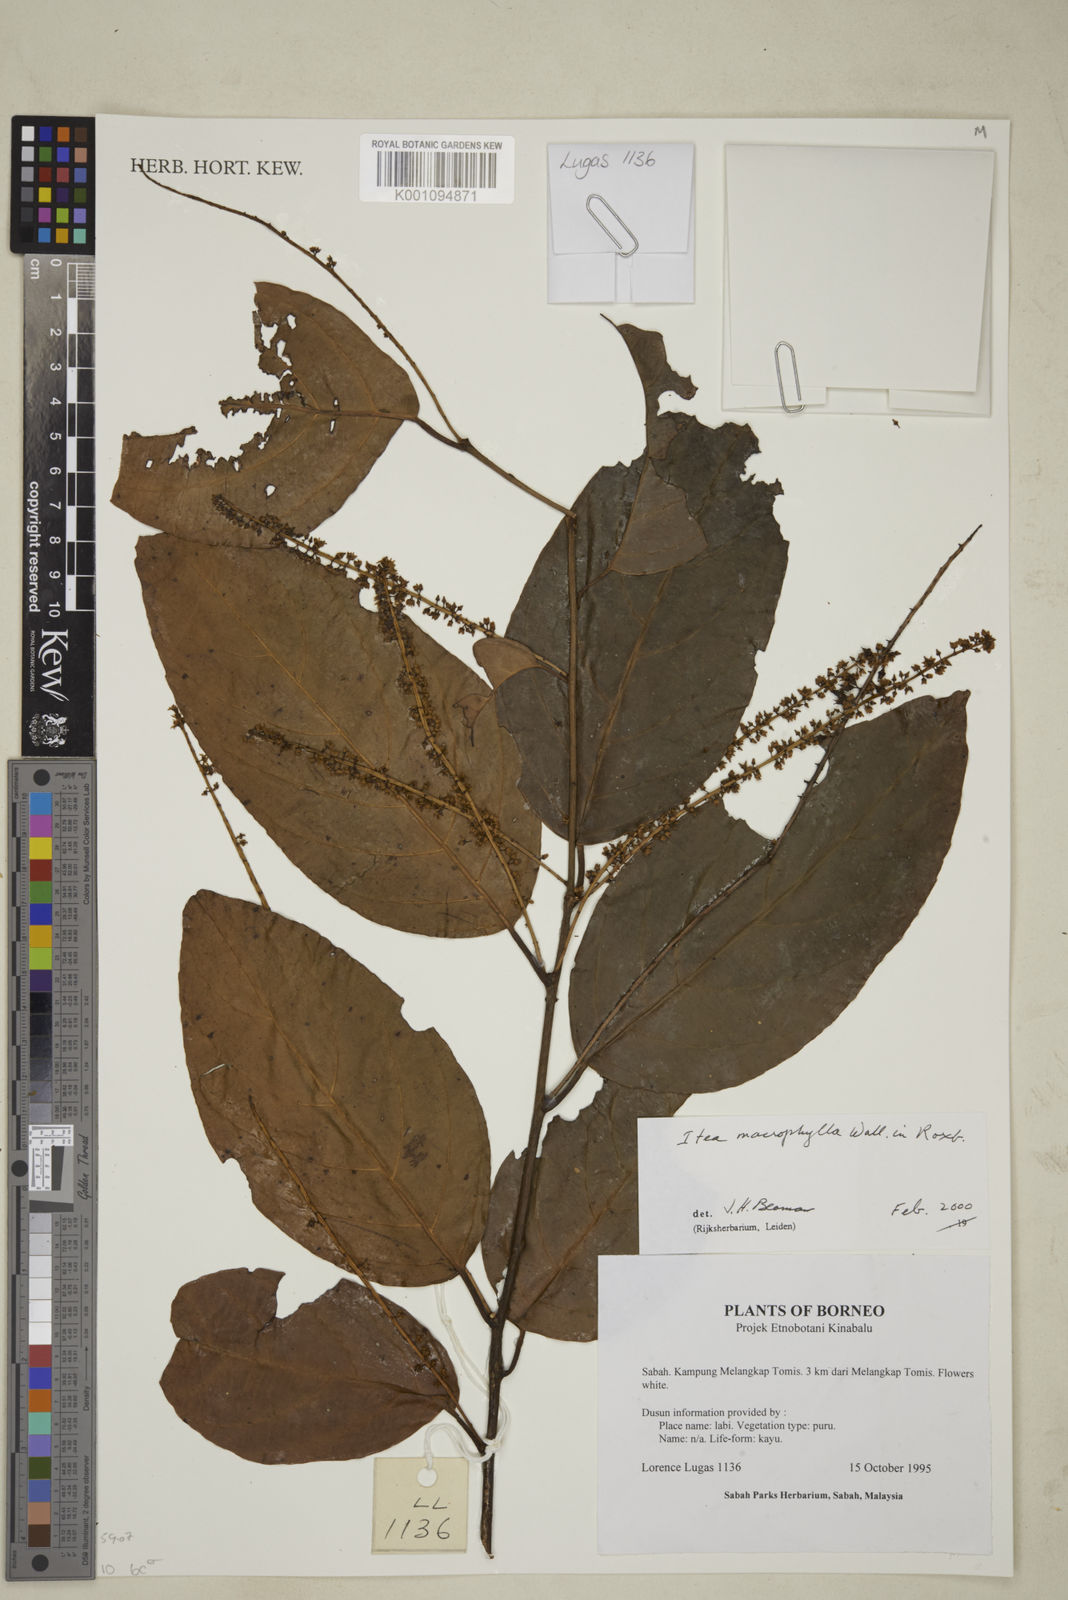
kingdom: Plantae
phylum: Tracheophyta
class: Magnoliopsida
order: Saxifragales
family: Iteaceae
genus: Itea
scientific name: Itea macrophylla
